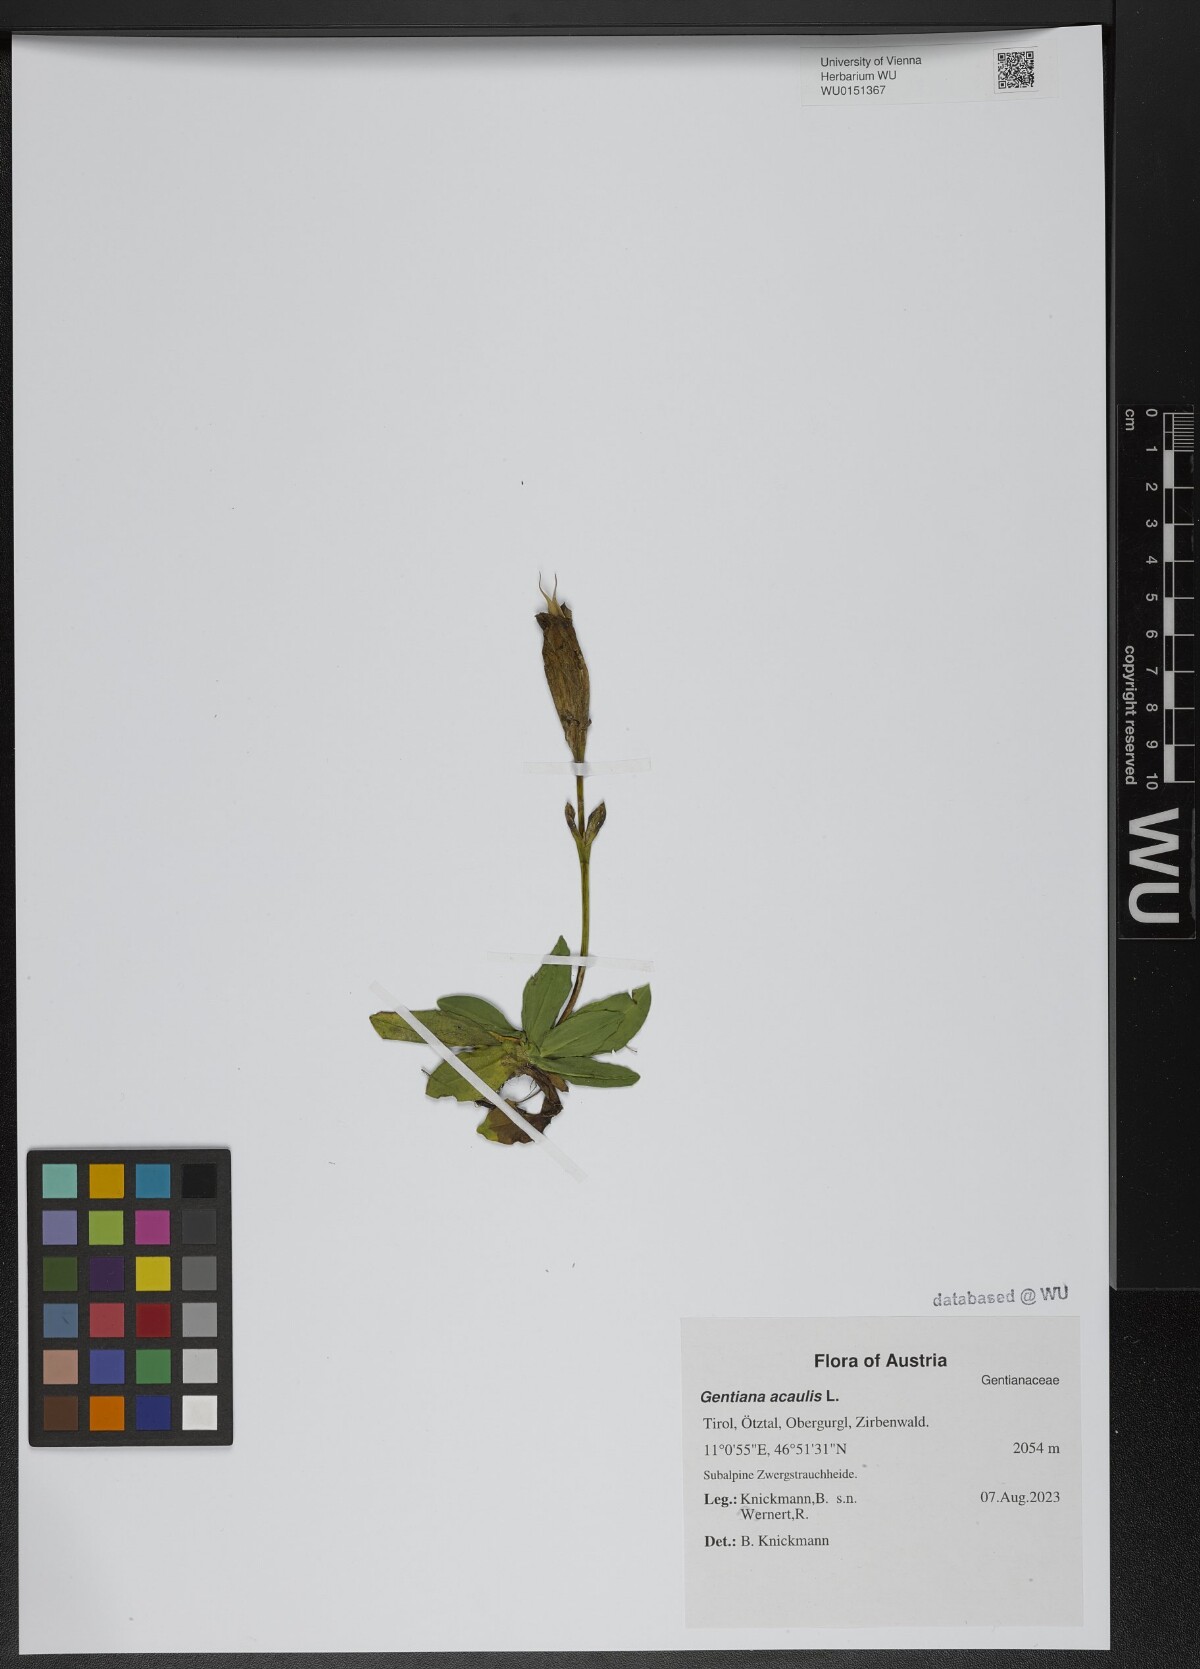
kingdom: Plantae
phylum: Tracheophyta
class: Magnoliopsida
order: Gentianales
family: Gentianaceae
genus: Gentiana
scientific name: Gentiana acaulis
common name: Trumpet gentian
